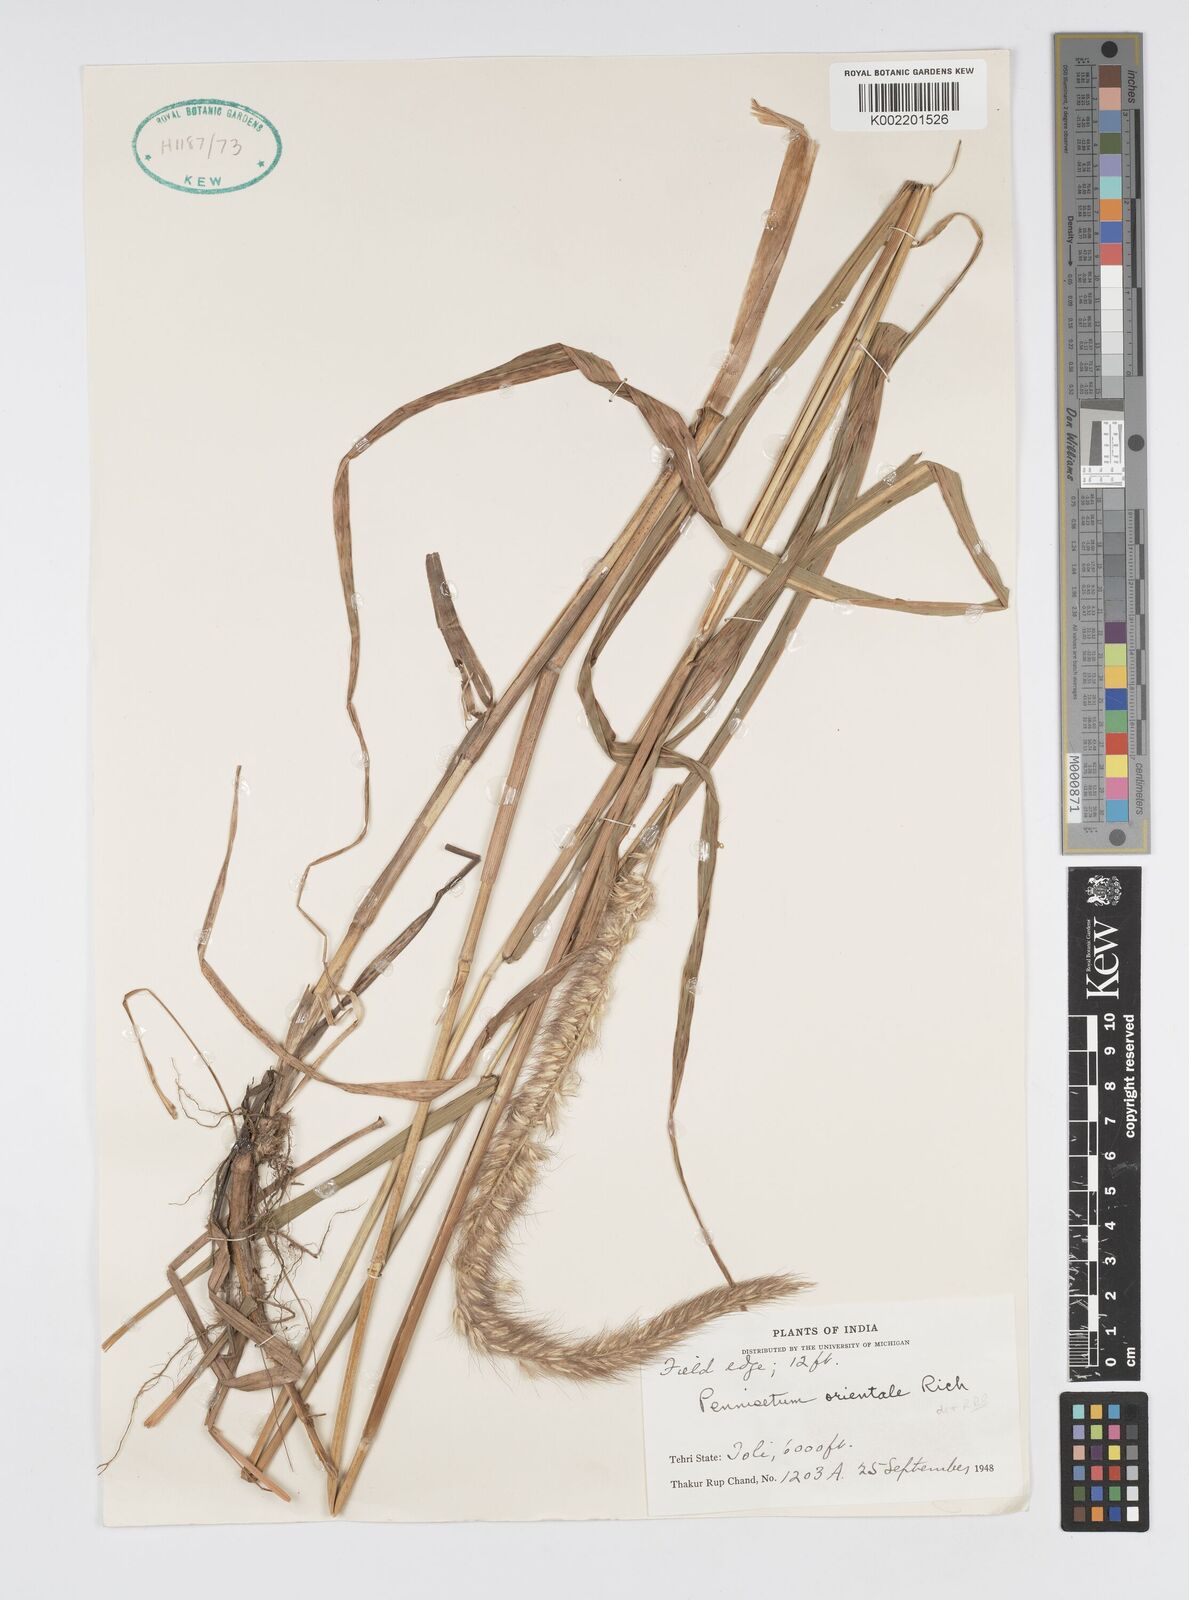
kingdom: Plantae
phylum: Tracheophyta
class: Liliopsida
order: Poales
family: Poaceae
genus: Cenchrus
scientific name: Cenchrus orientalis
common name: Oriental fountain grass
